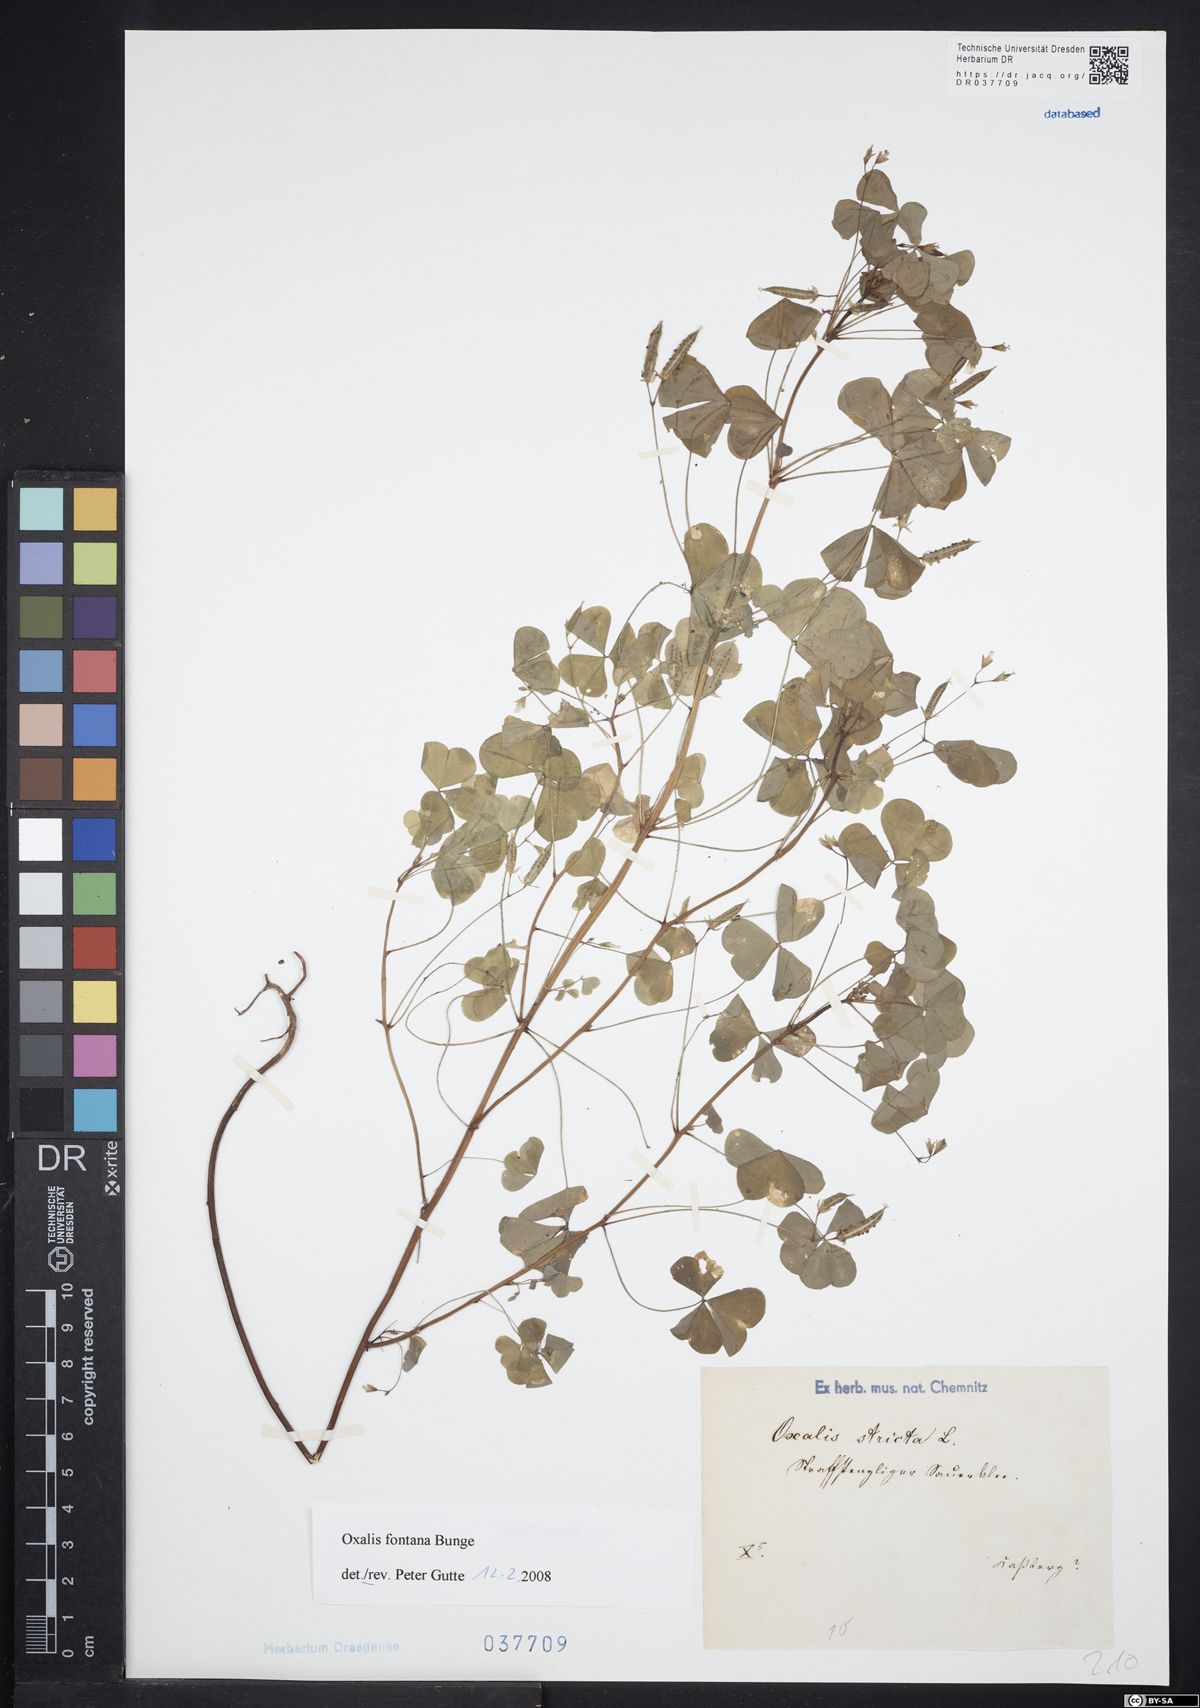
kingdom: Plantae
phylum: Tracheophyta
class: Magnoliopsida
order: Oxalidales
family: Oxalidaceae
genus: Oxalis
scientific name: Oxalis stricta
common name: Upright yellow-sorrel
